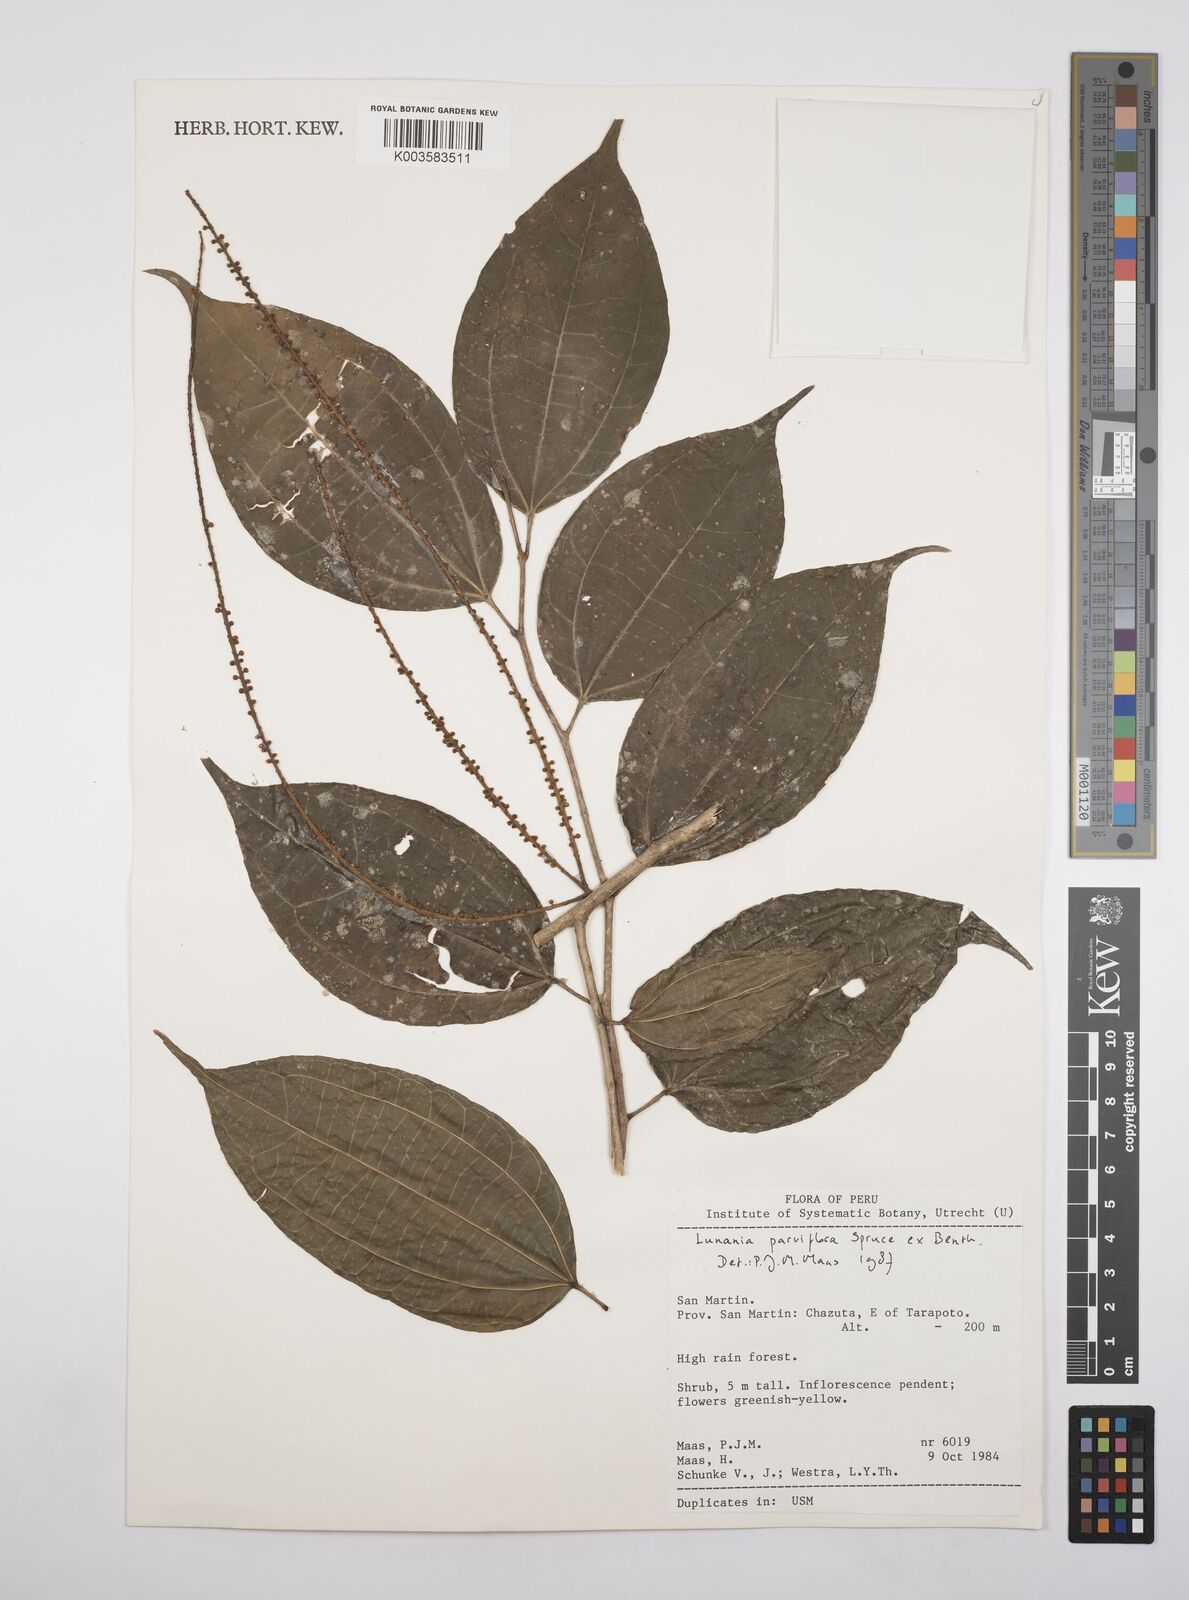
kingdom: Plantae
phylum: Tracheophyta
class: Magnoliopsida
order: Malpighiales
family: Salicaceae
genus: Lunania
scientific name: Lunania parviflora
